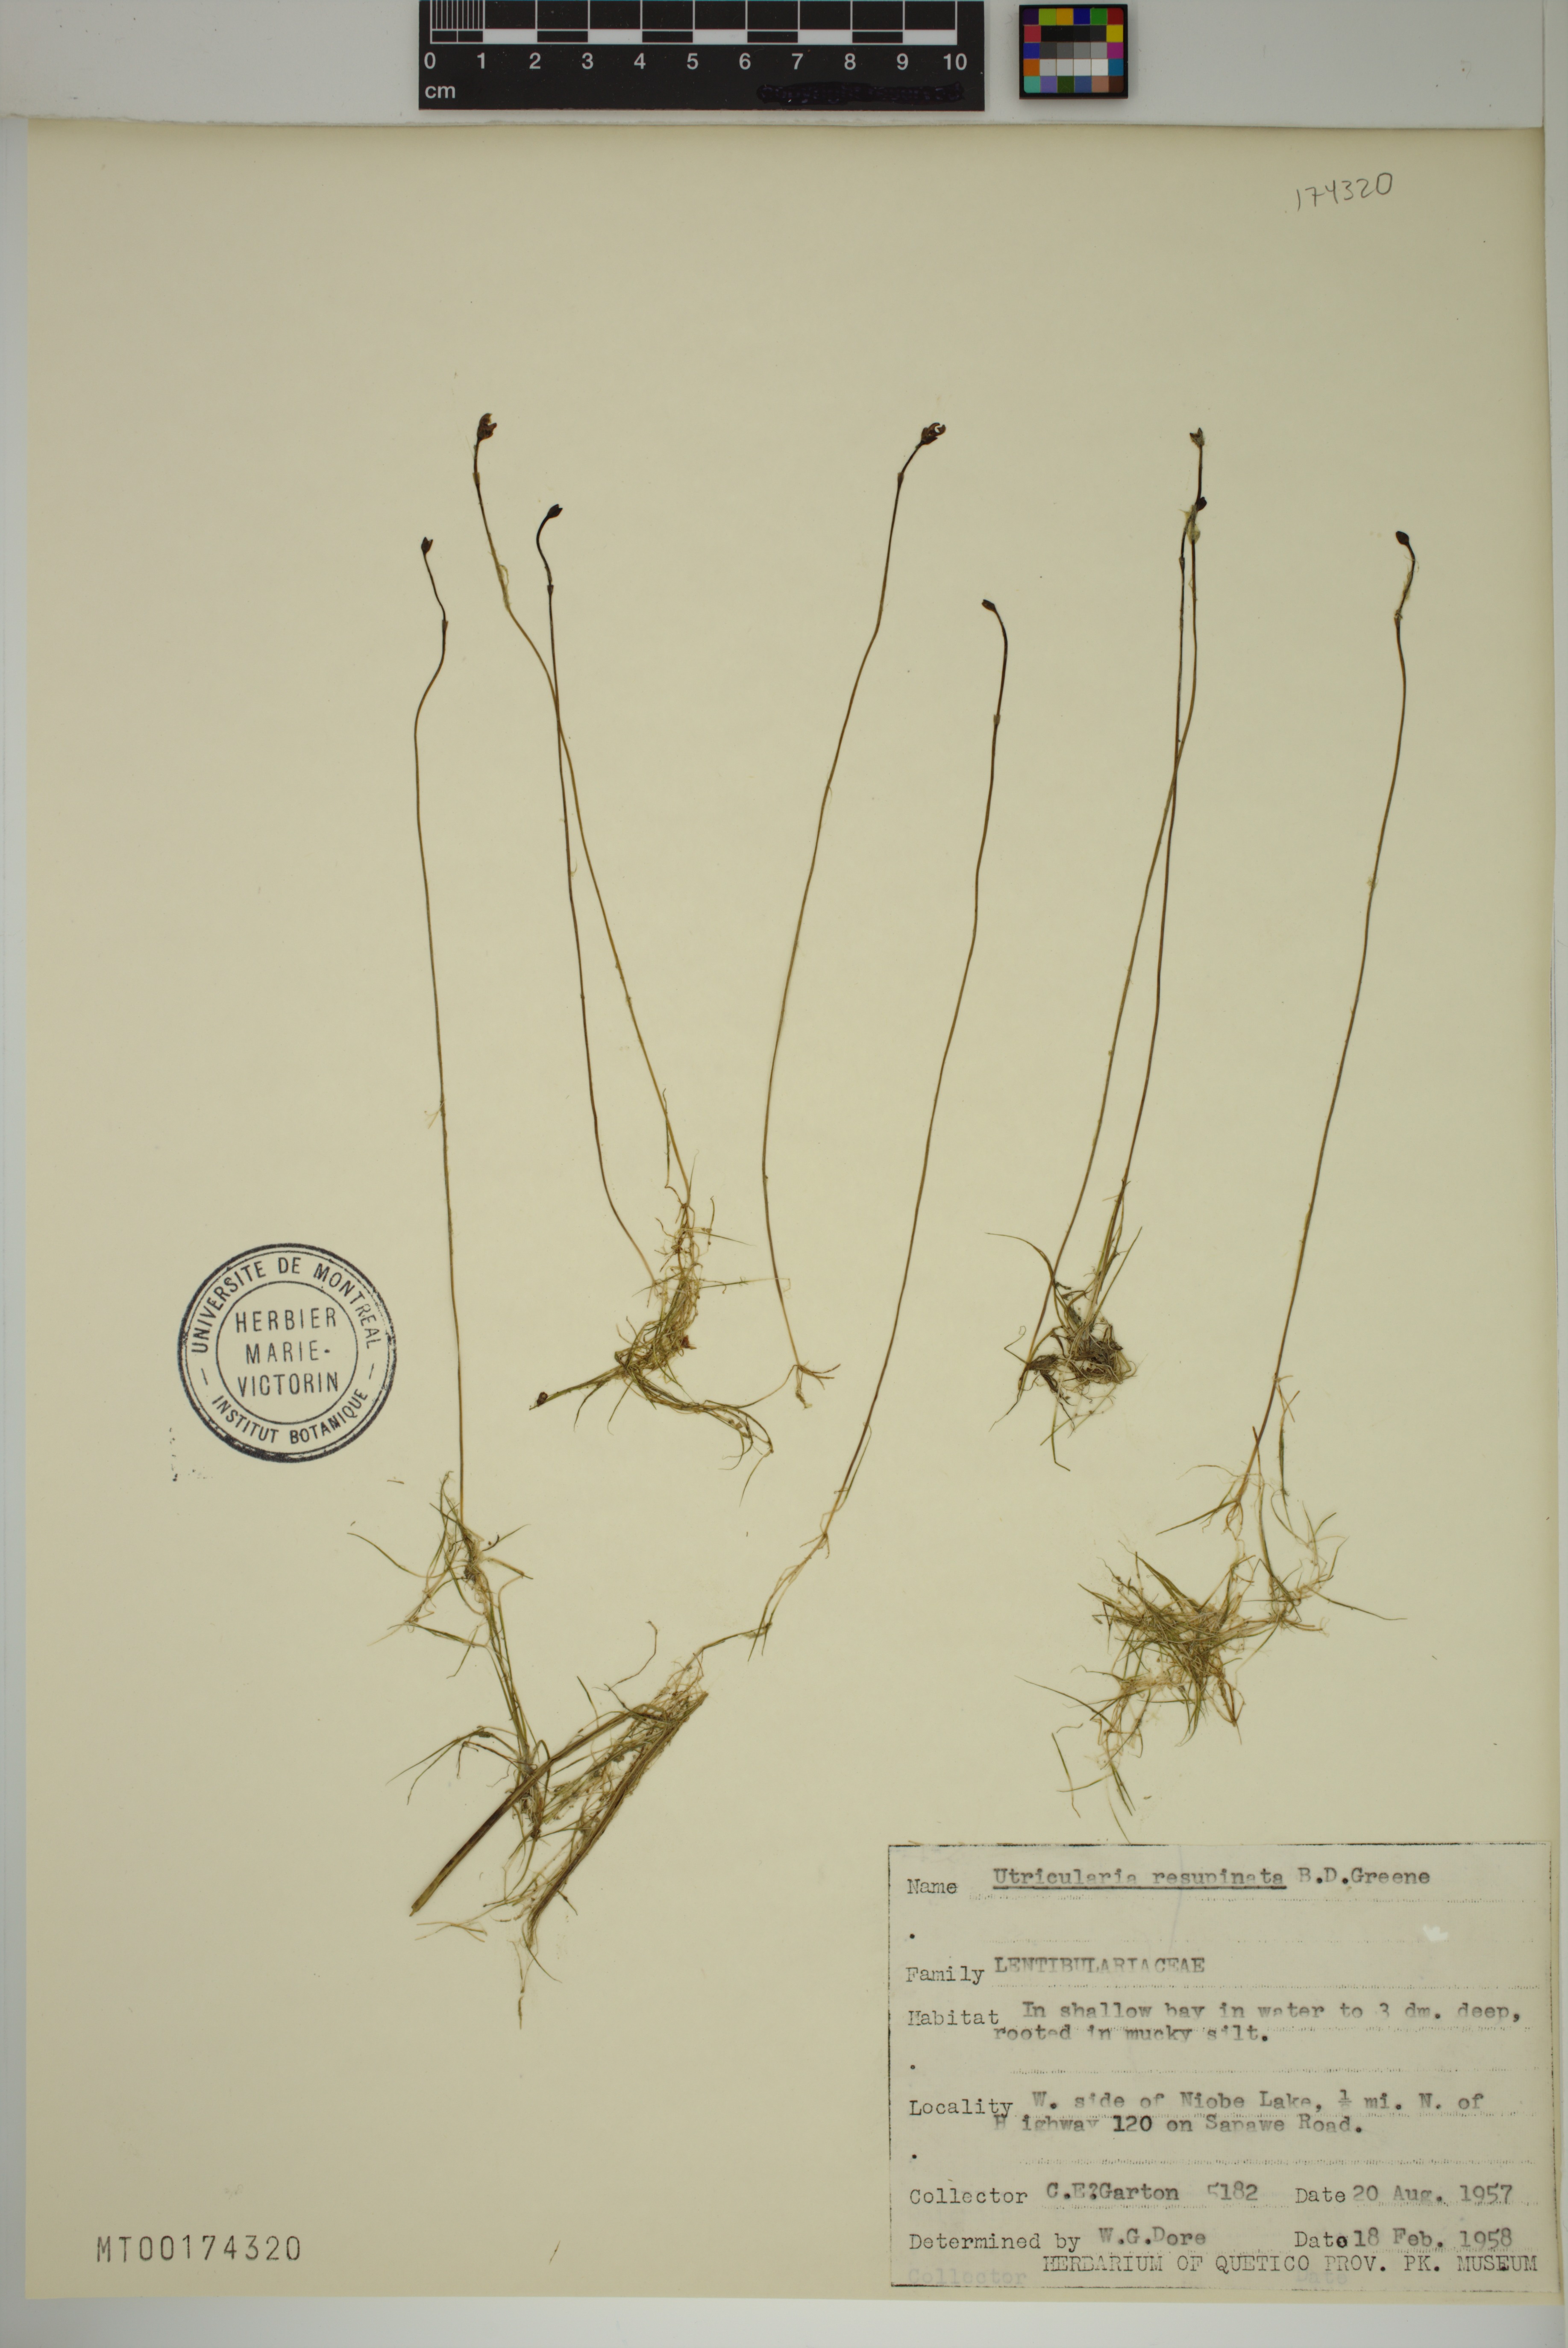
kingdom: Plantae
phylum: Tracheophyta
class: Magnoliopsida
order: Lamiales
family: Lentibulariaceae
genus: Utricularia
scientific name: Utricularia resupinata
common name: Northeastern bladderwort
